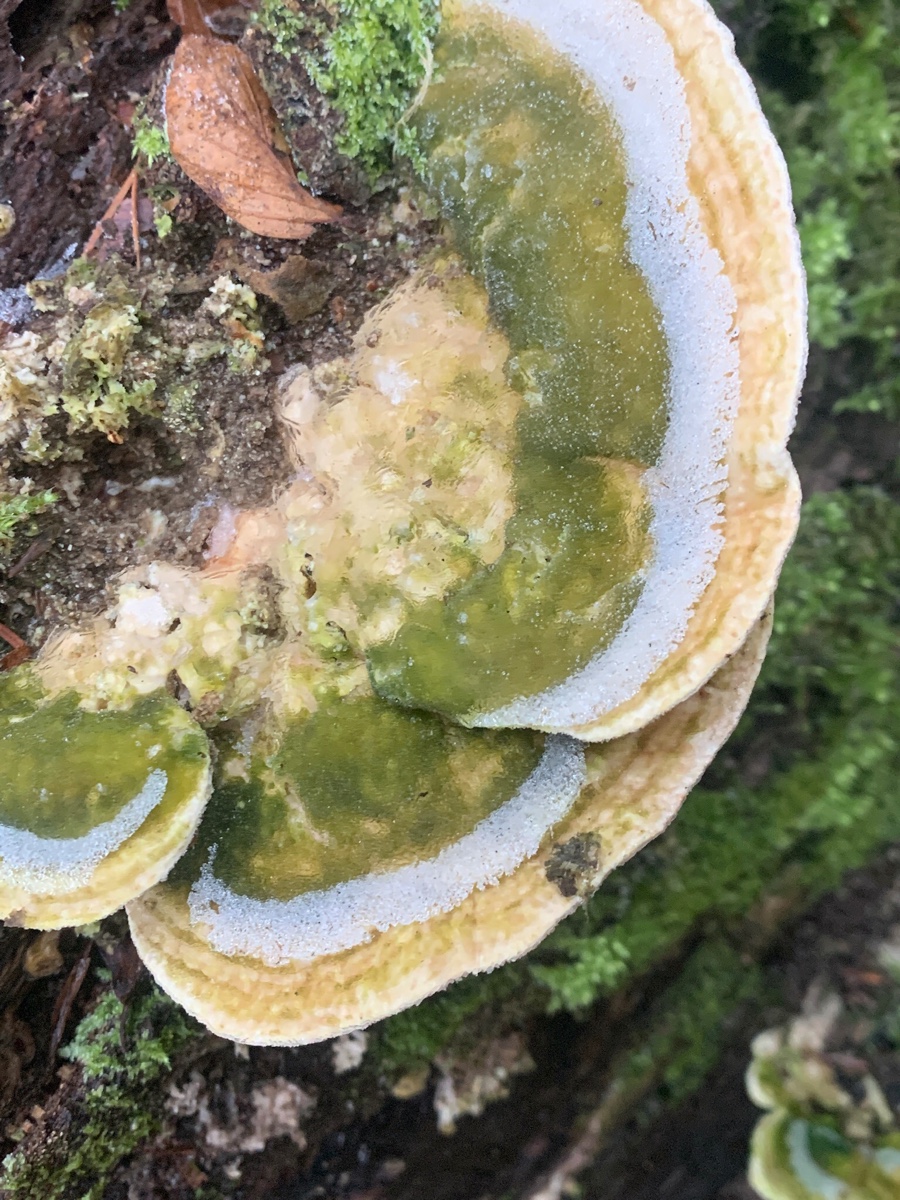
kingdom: Fungi
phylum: Basidiomycota
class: Agaricomycetes
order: Polyporales
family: Polyporaceae
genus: Trametes
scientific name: Trametes hirsuta
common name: håret læderporesvamp
